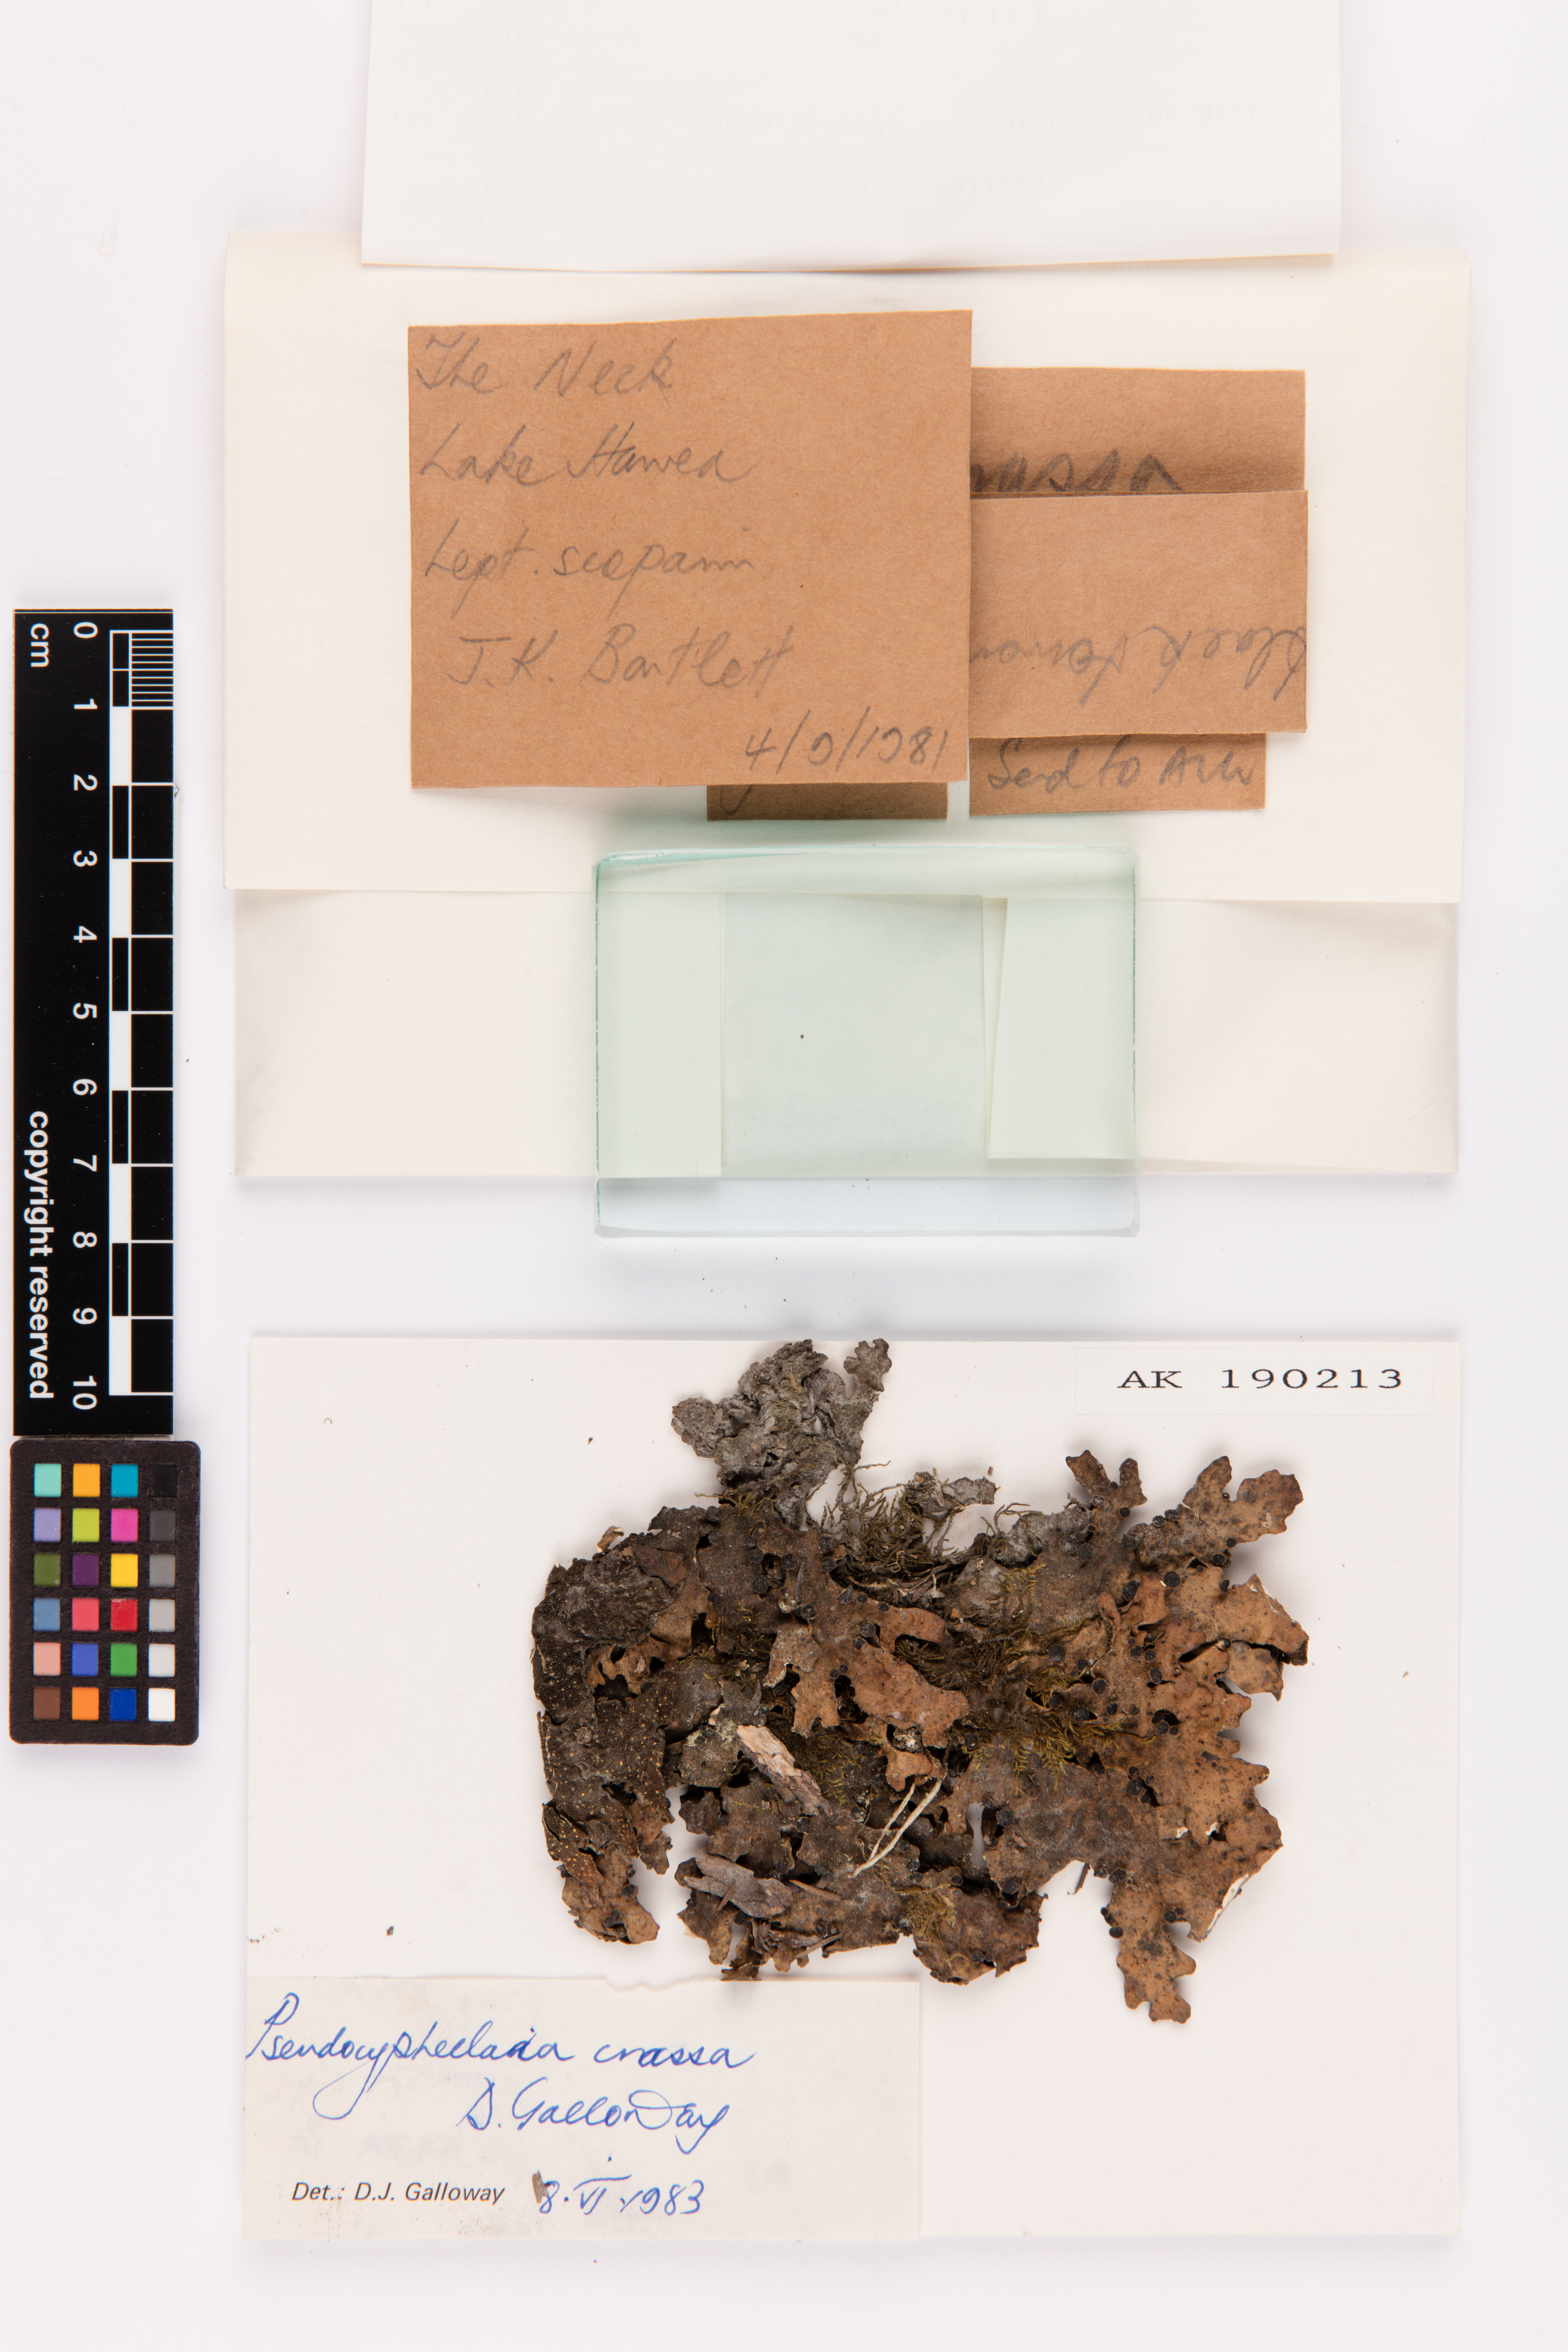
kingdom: Fungi
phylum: Ascomycota
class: Lecanoromycetes
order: Peltigerales
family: Lobariaceae
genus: Pseudocyphellaria
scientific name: Pseudocyphellaria crassa
